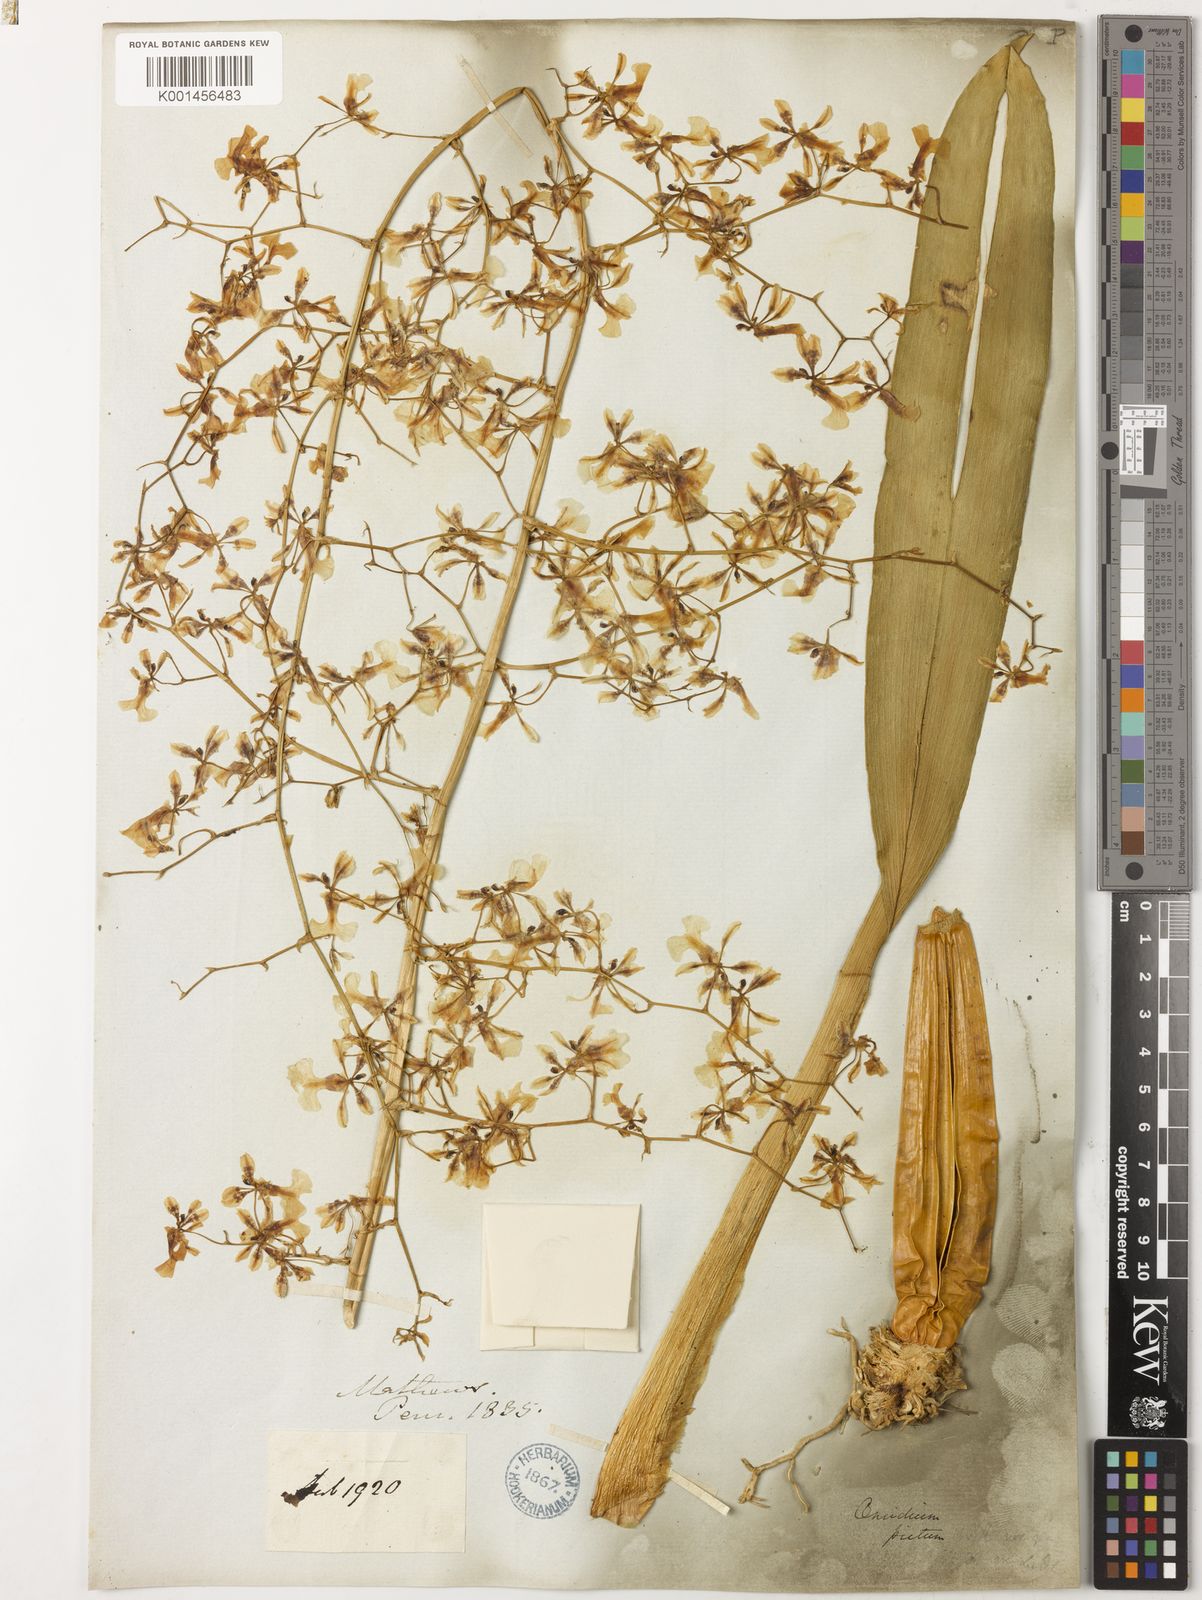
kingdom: Plantae
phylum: Tracheophyta
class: Liliopsida
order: Asparagales
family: Orchidaceae
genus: Oncidium
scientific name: Oncidium pictum
